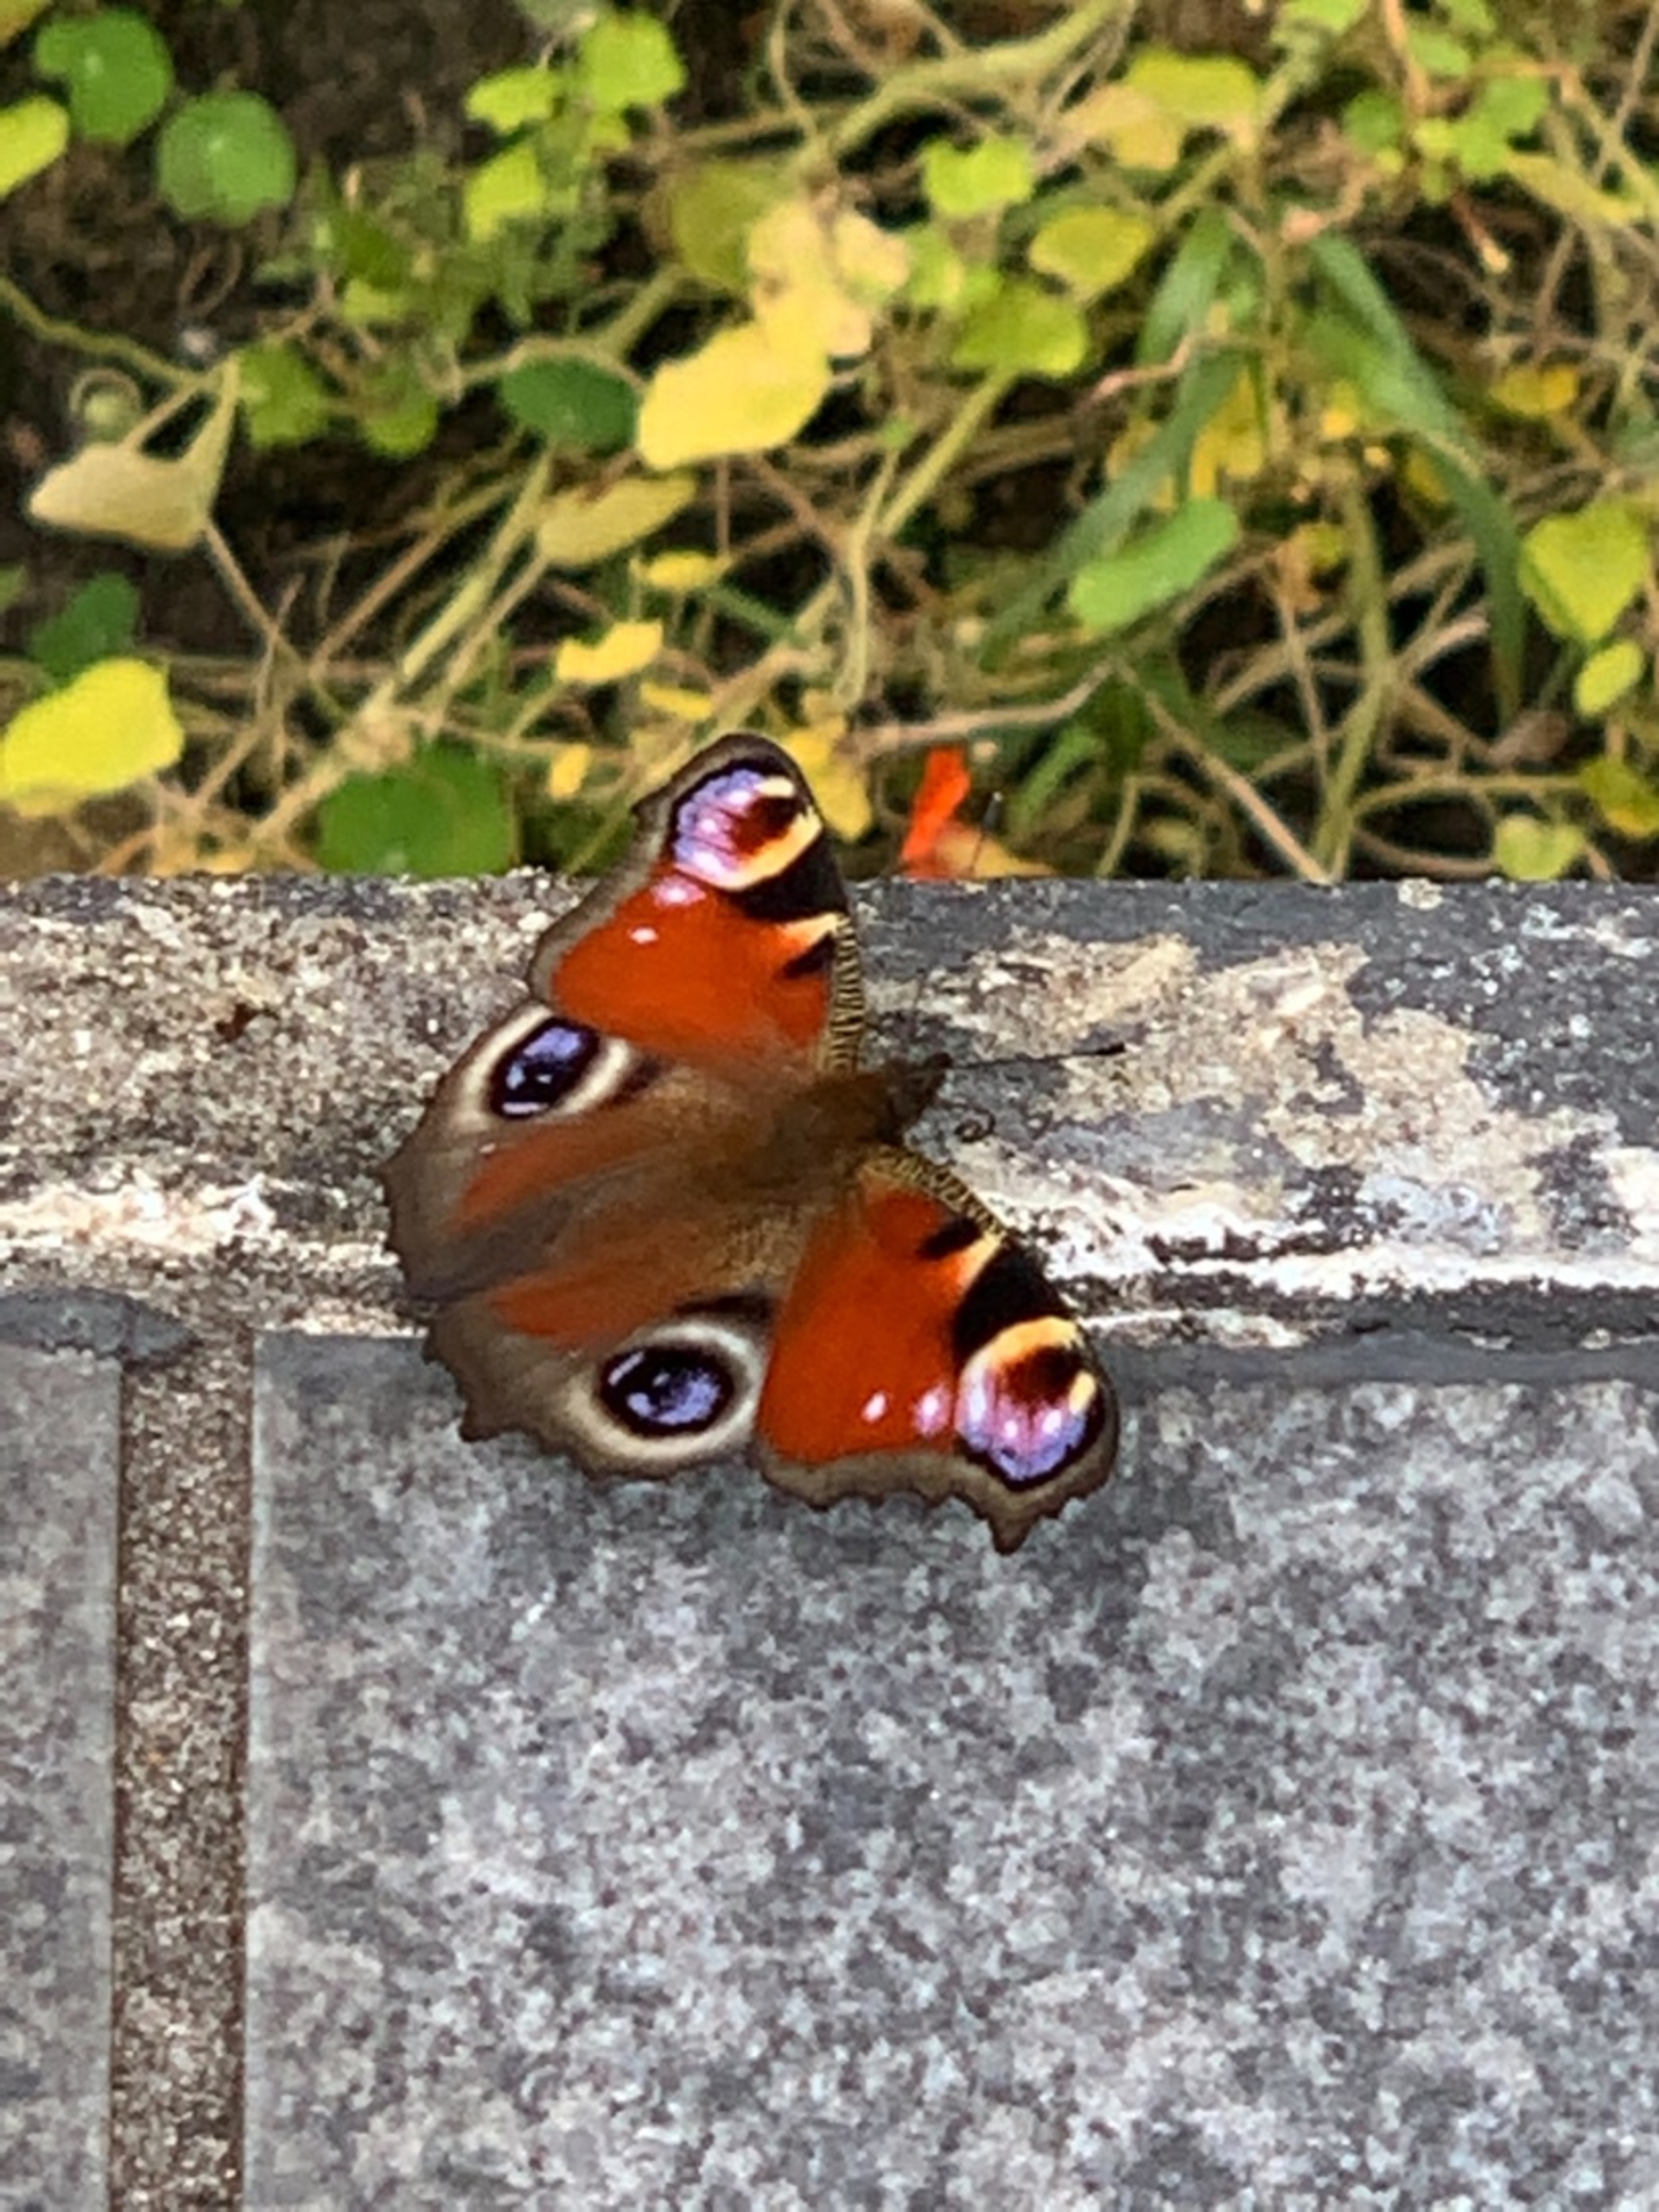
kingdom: Animalia
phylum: Arthropoda
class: Insecta
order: Lepidoptera
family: Nymphalidae
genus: Aglais
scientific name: Aglais io
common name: Dagpåfugleøje
